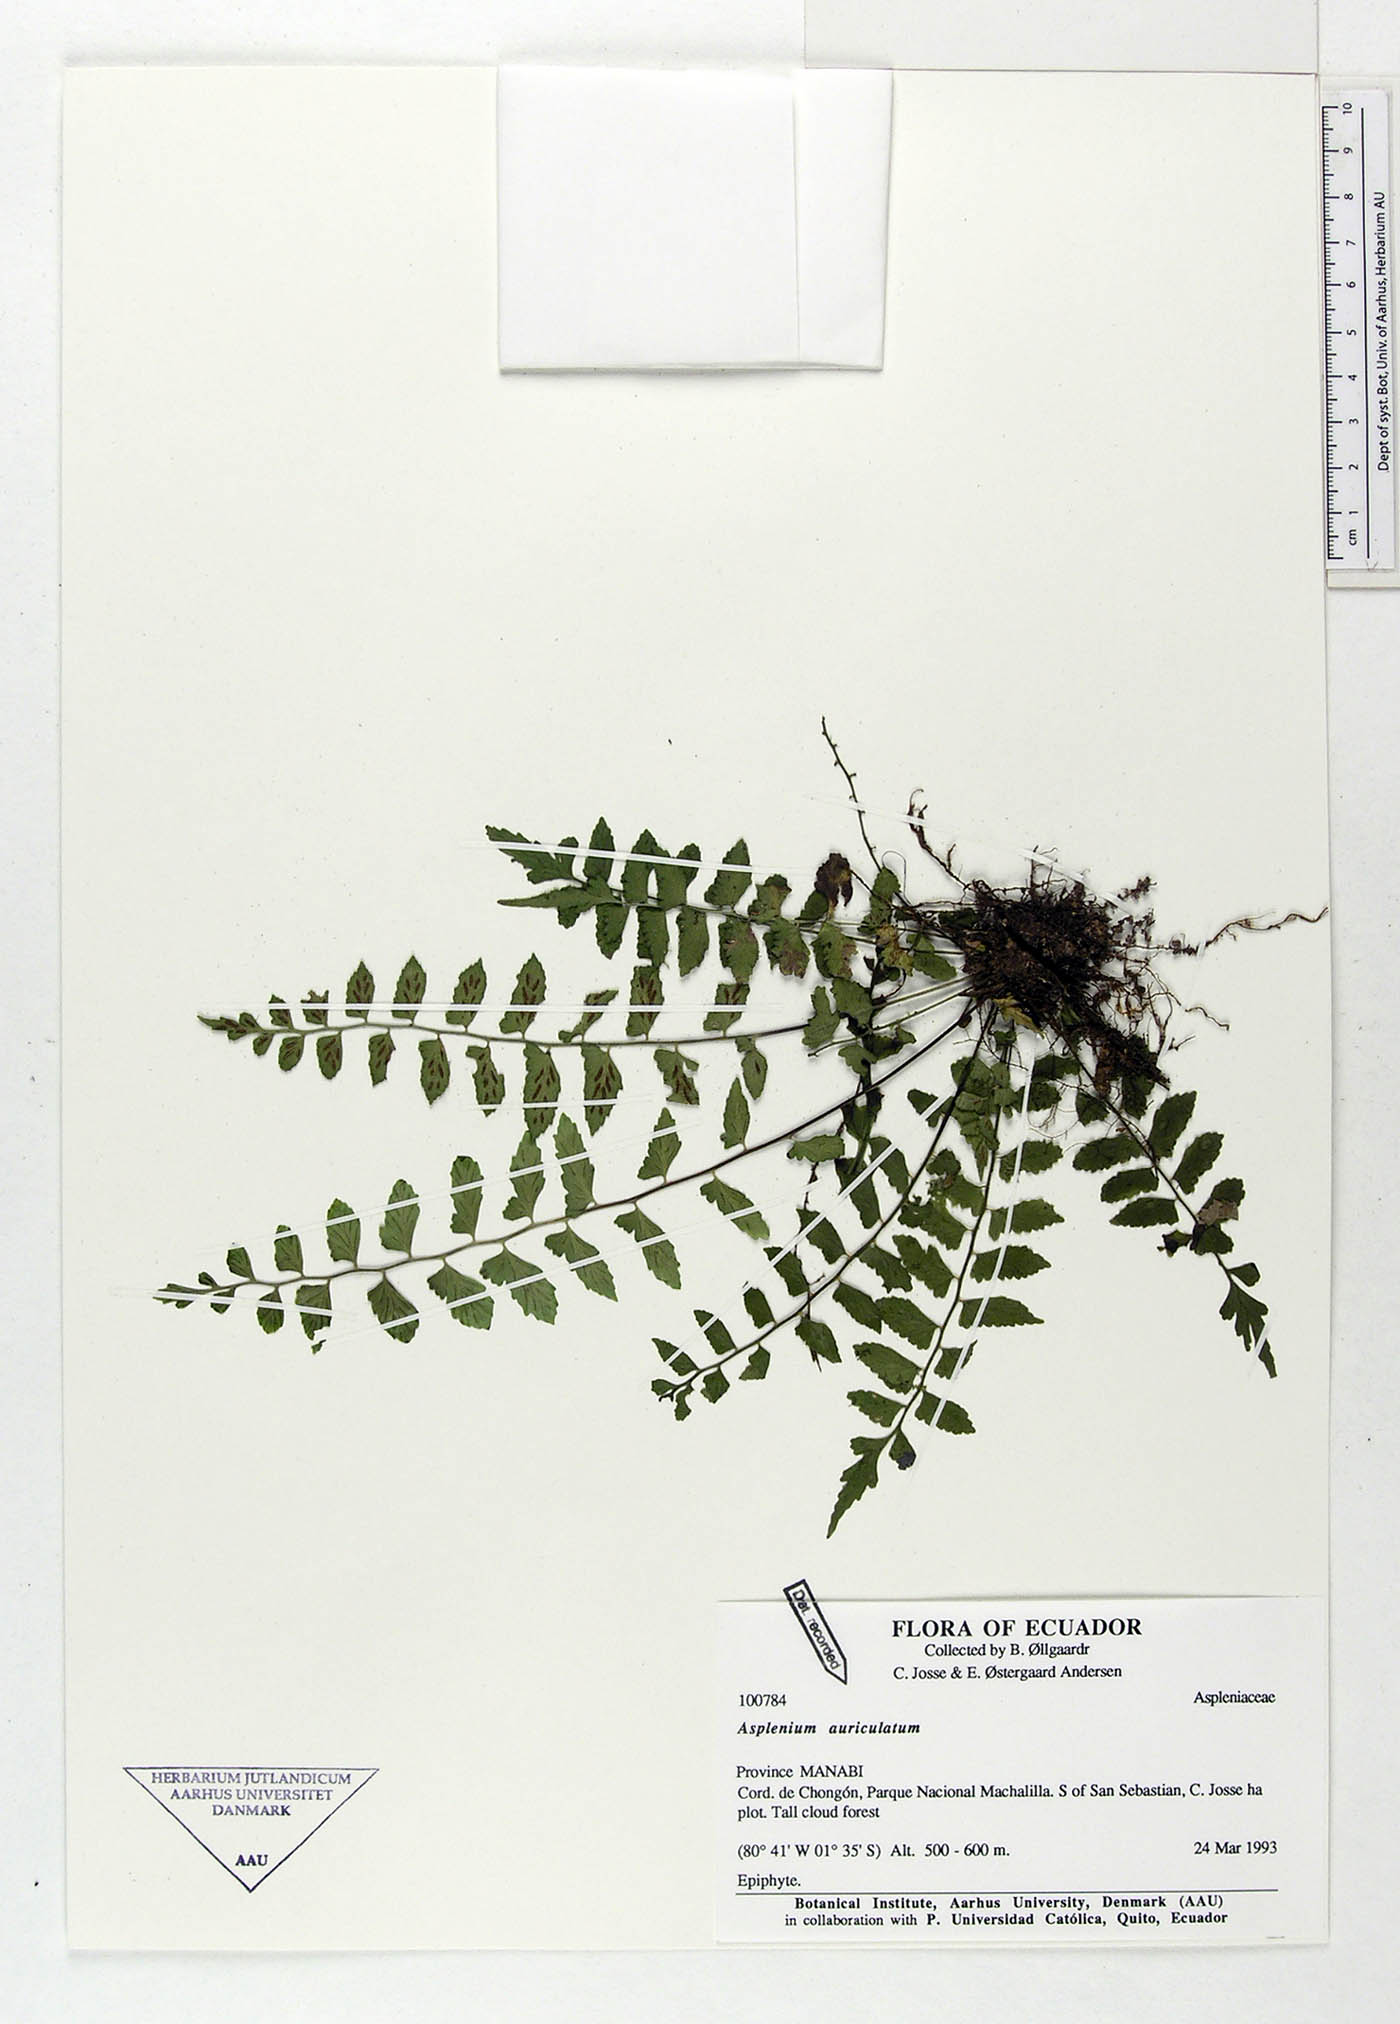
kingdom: Plantae
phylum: Tracheophyta
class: Polypodiopsida
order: Polypodiales
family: Aspleniaceae
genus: Asplenium
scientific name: Asplenium auriculatum
